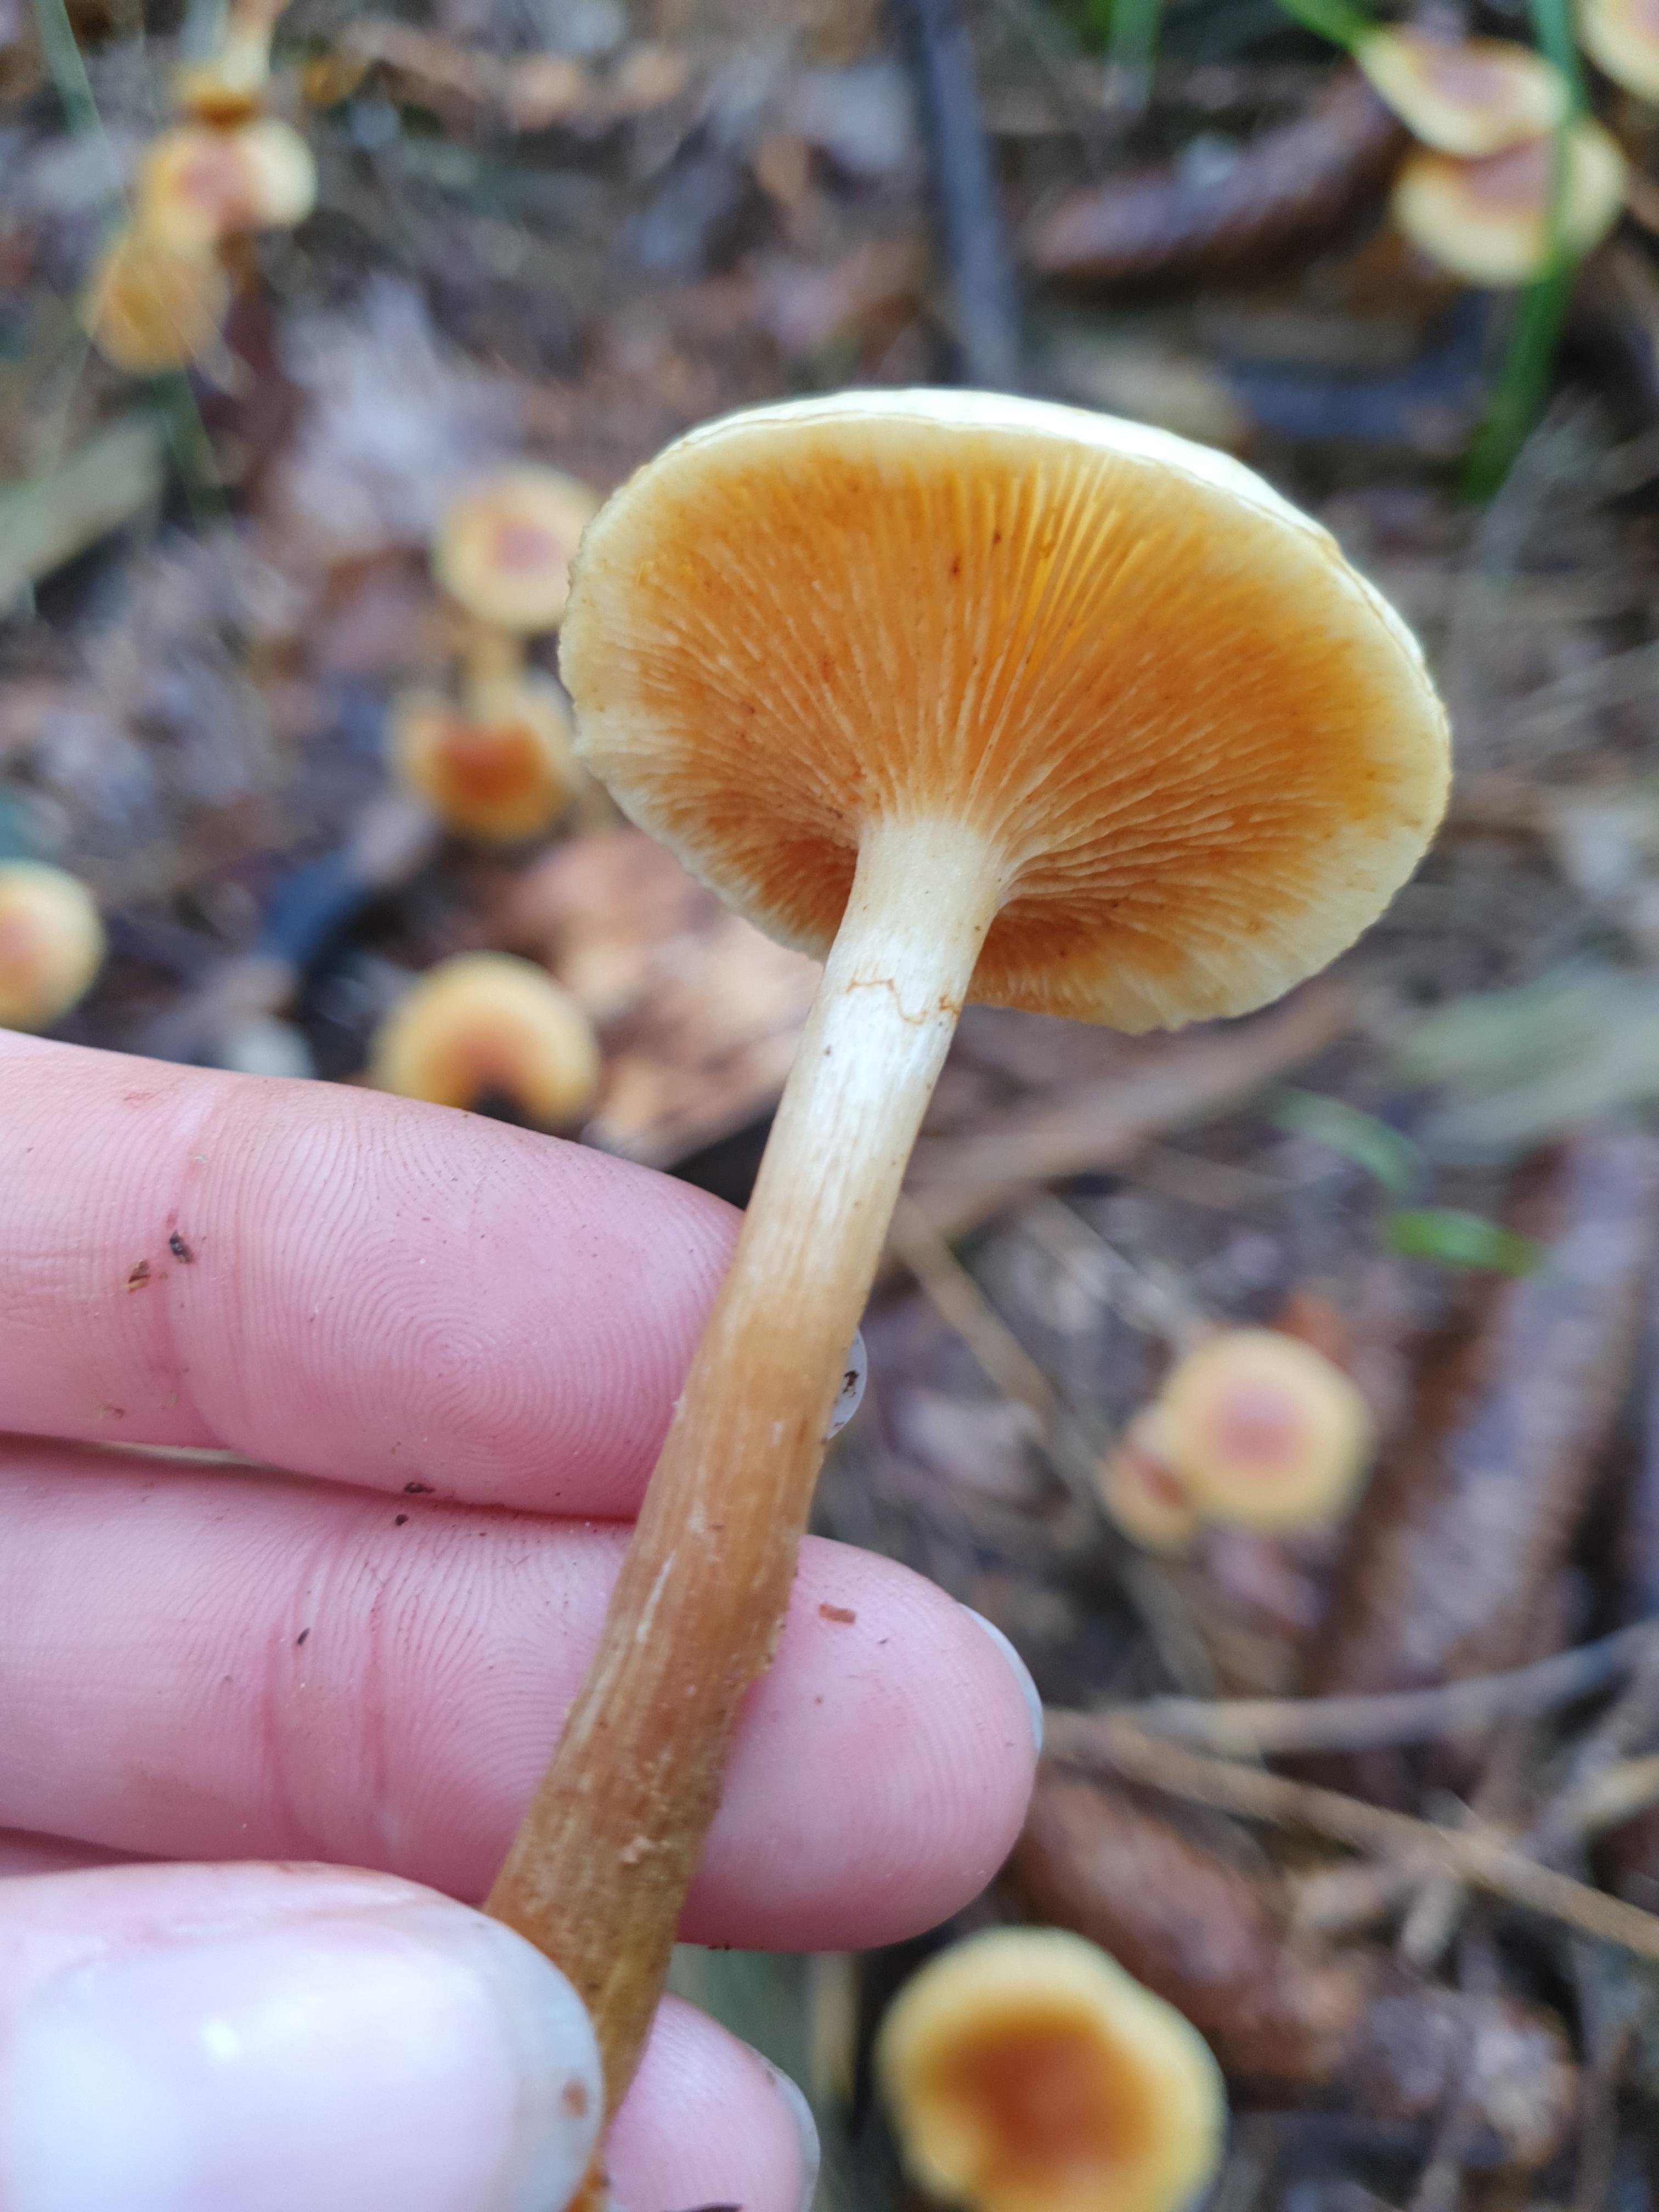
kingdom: Fungi
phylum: Basidiomycota
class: Agaricomycetes
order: Agaricales
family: Hymenogastraceae
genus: Gymnopilus
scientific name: Gymnopilus penetrans
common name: plettet flammehat
